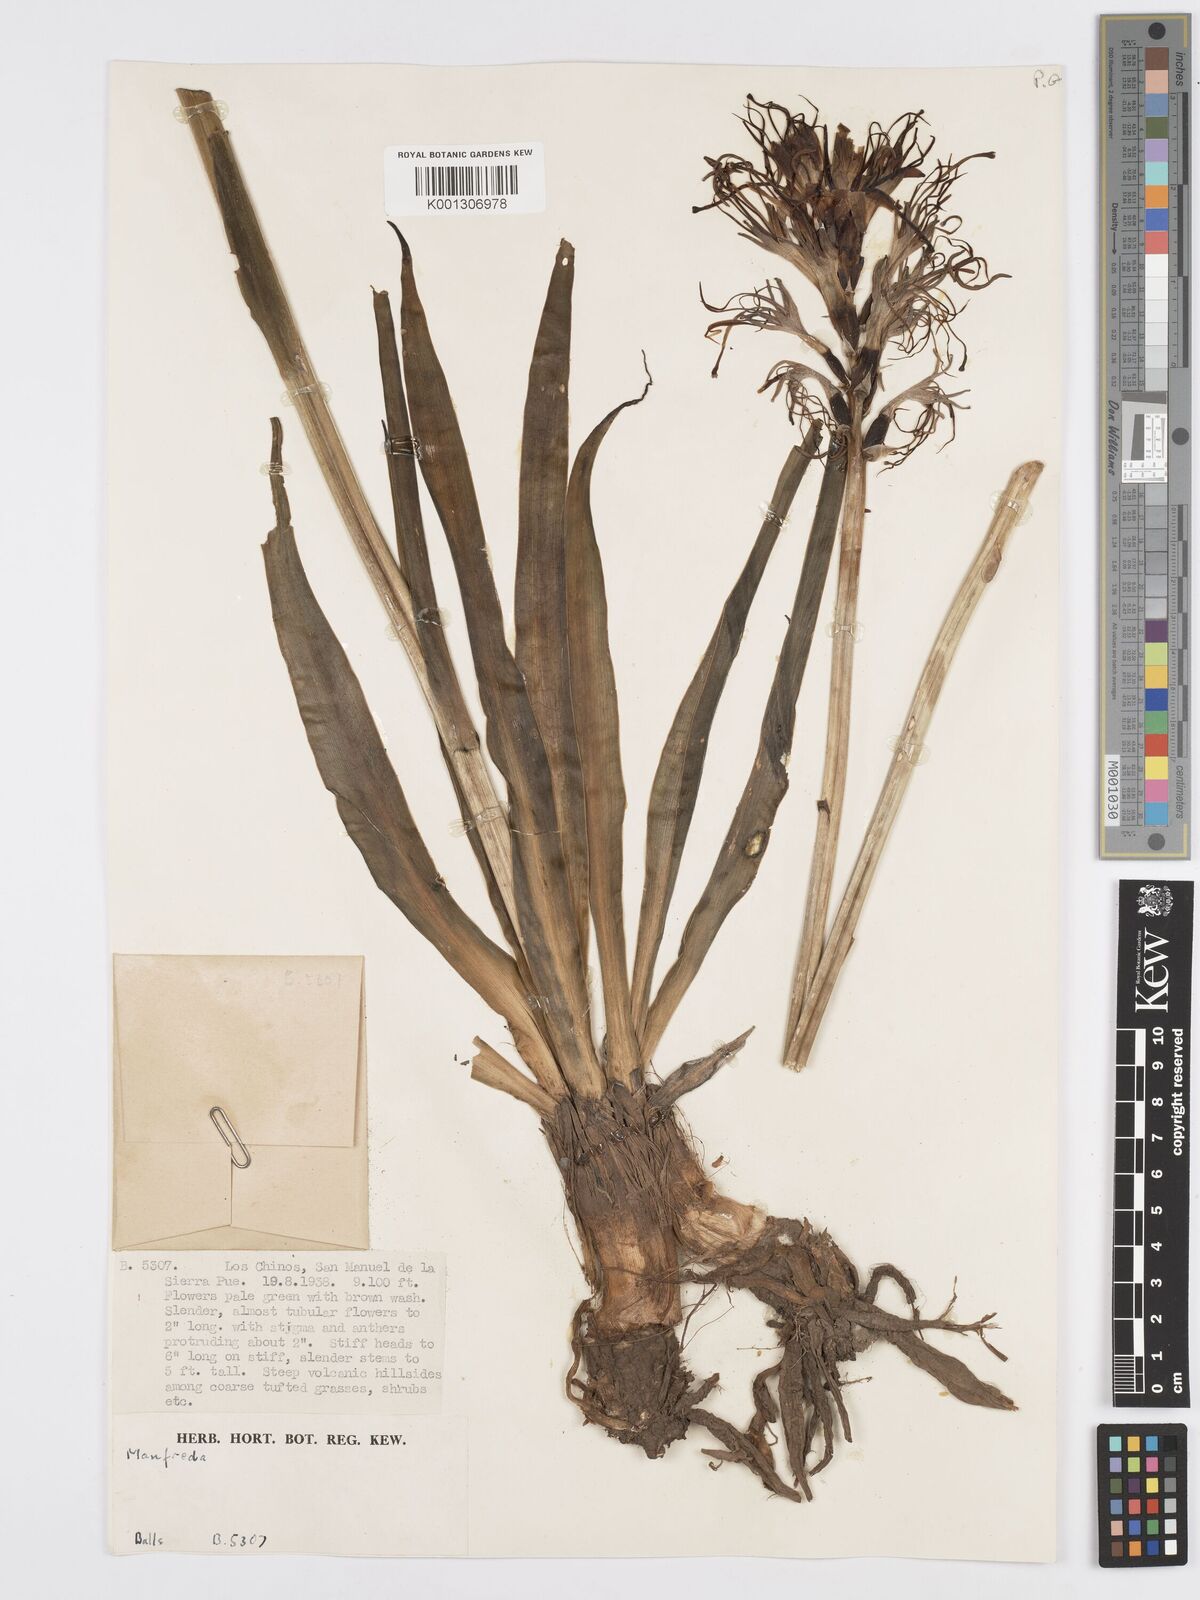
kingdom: Plantae
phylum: Tracheophyta
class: Liliopsida
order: Asparagales
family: Asparagaceae
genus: Agave
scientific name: Agave Manfreda spec
